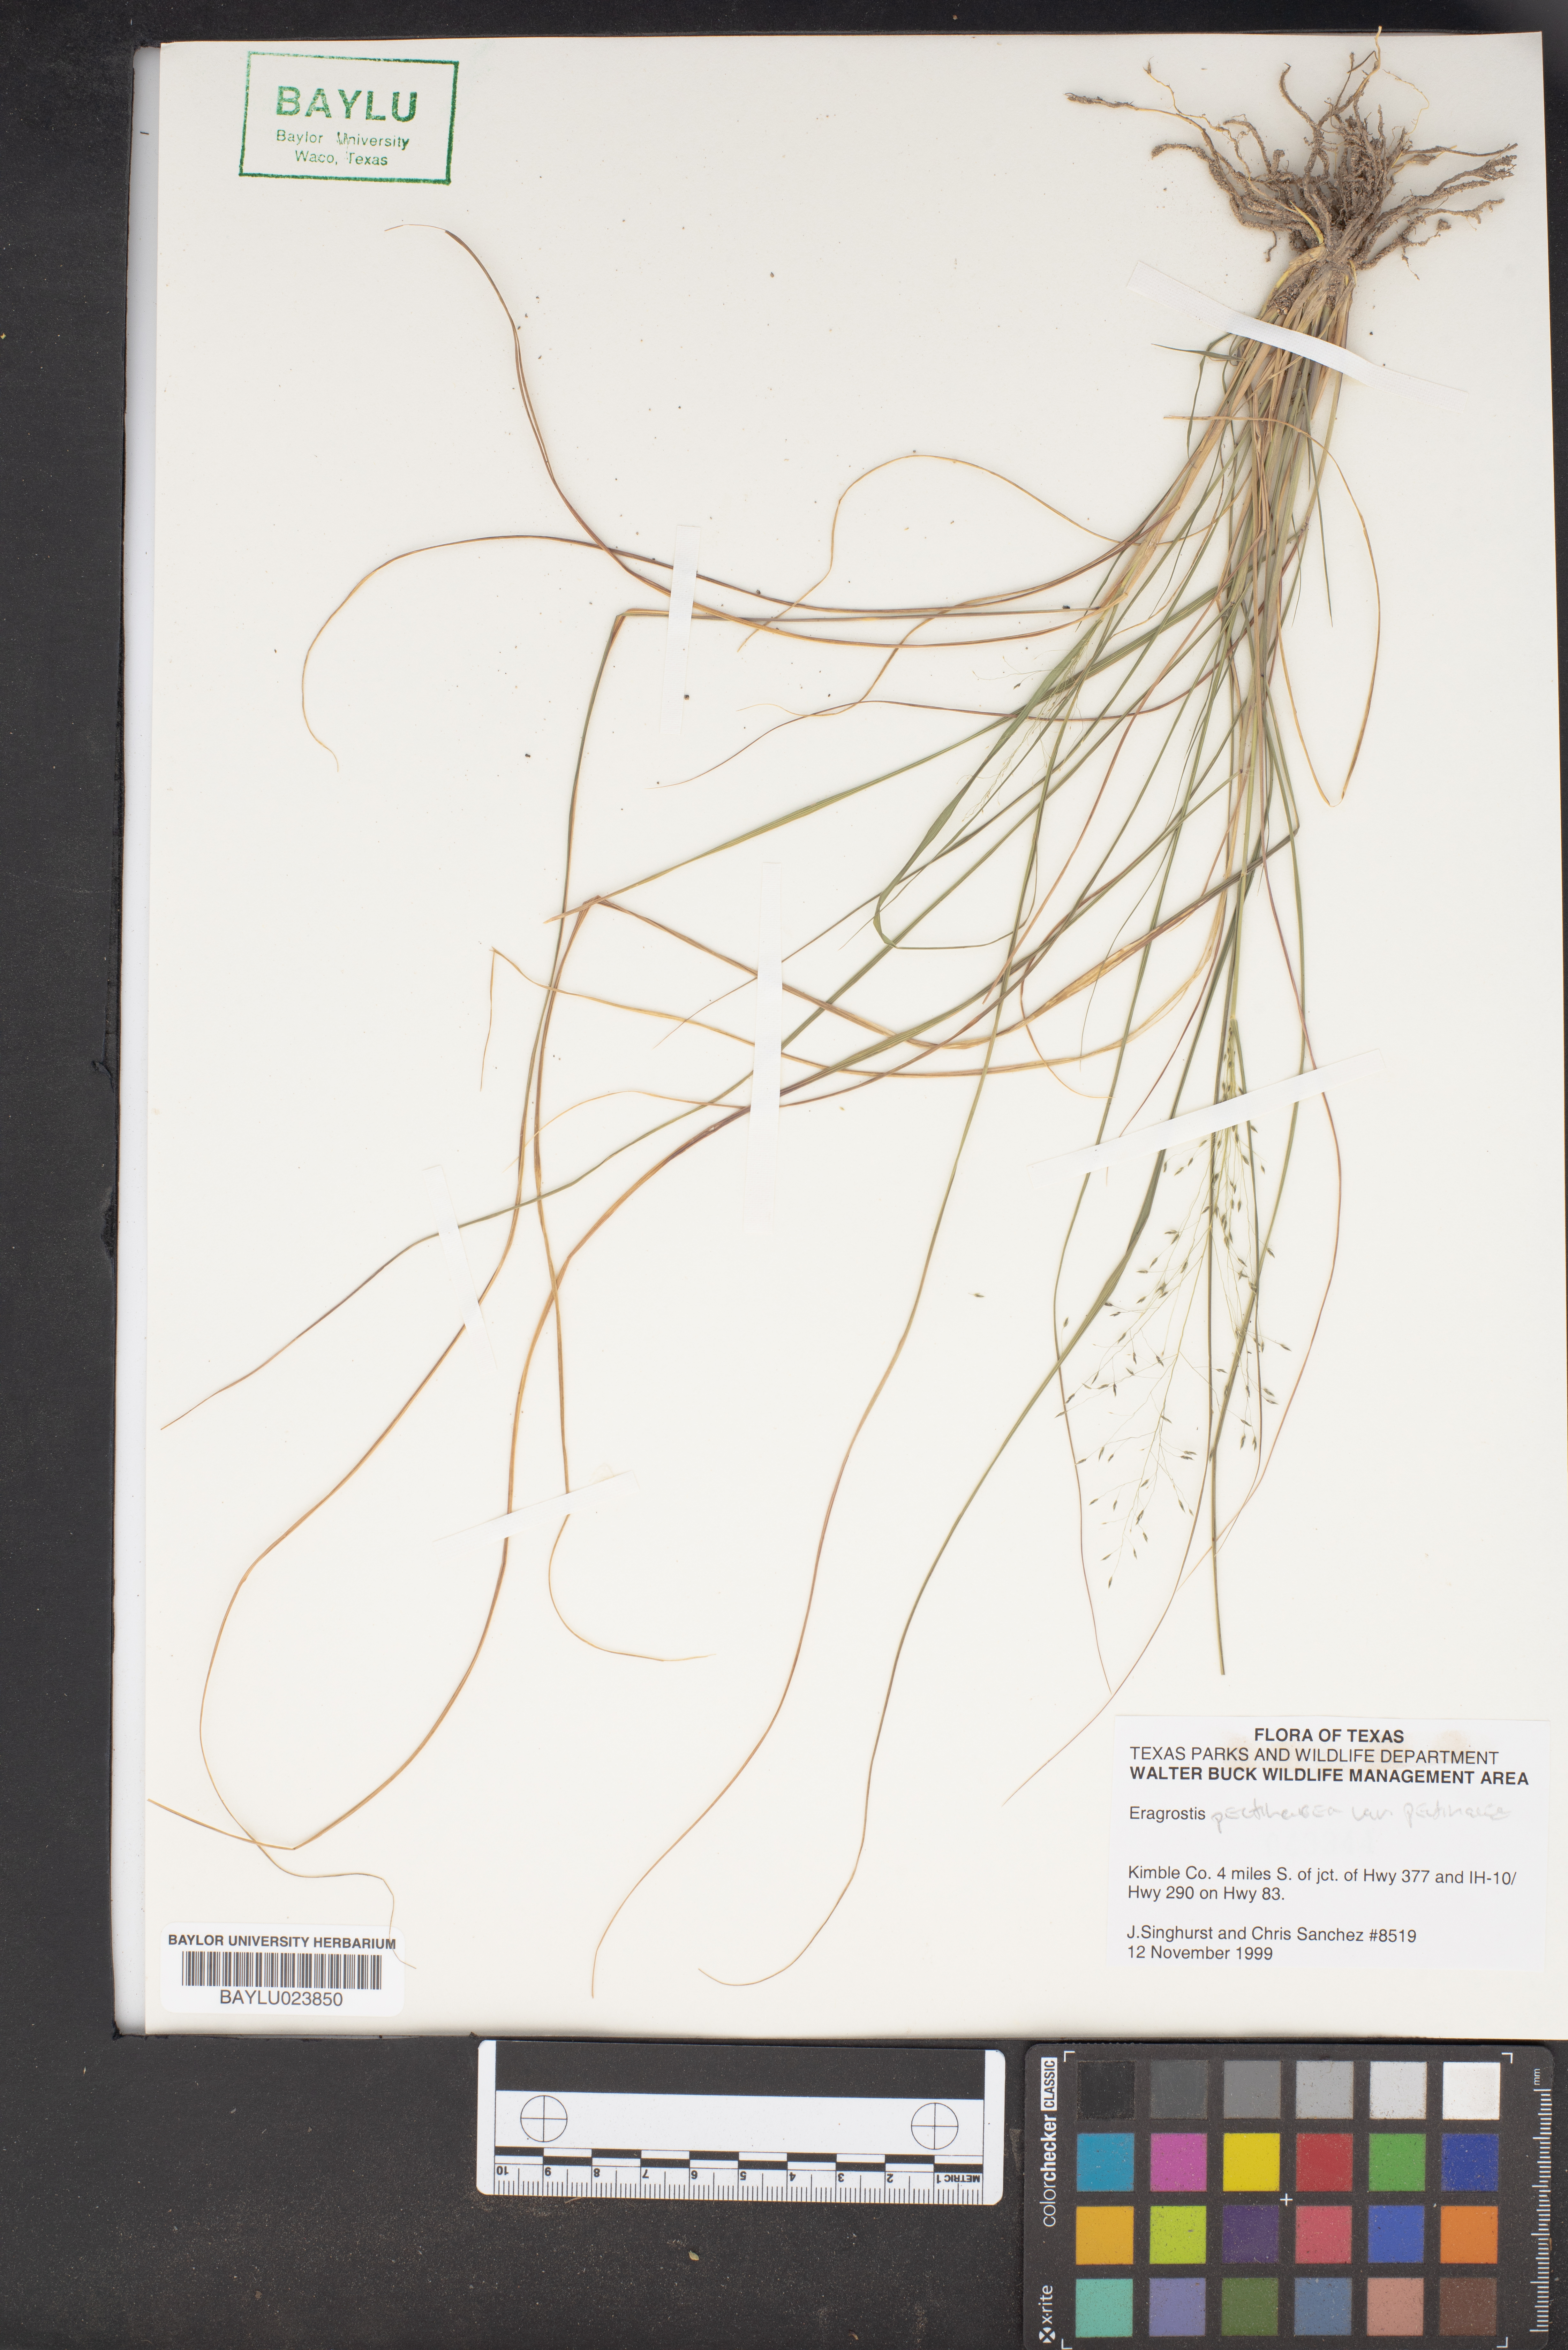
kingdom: Plantae
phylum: Tracheophyta
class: Liliopsida
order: Poales
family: Poaceae
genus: Eragrostis
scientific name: Eragrostis pectinacea
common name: Tufted lovegrass
